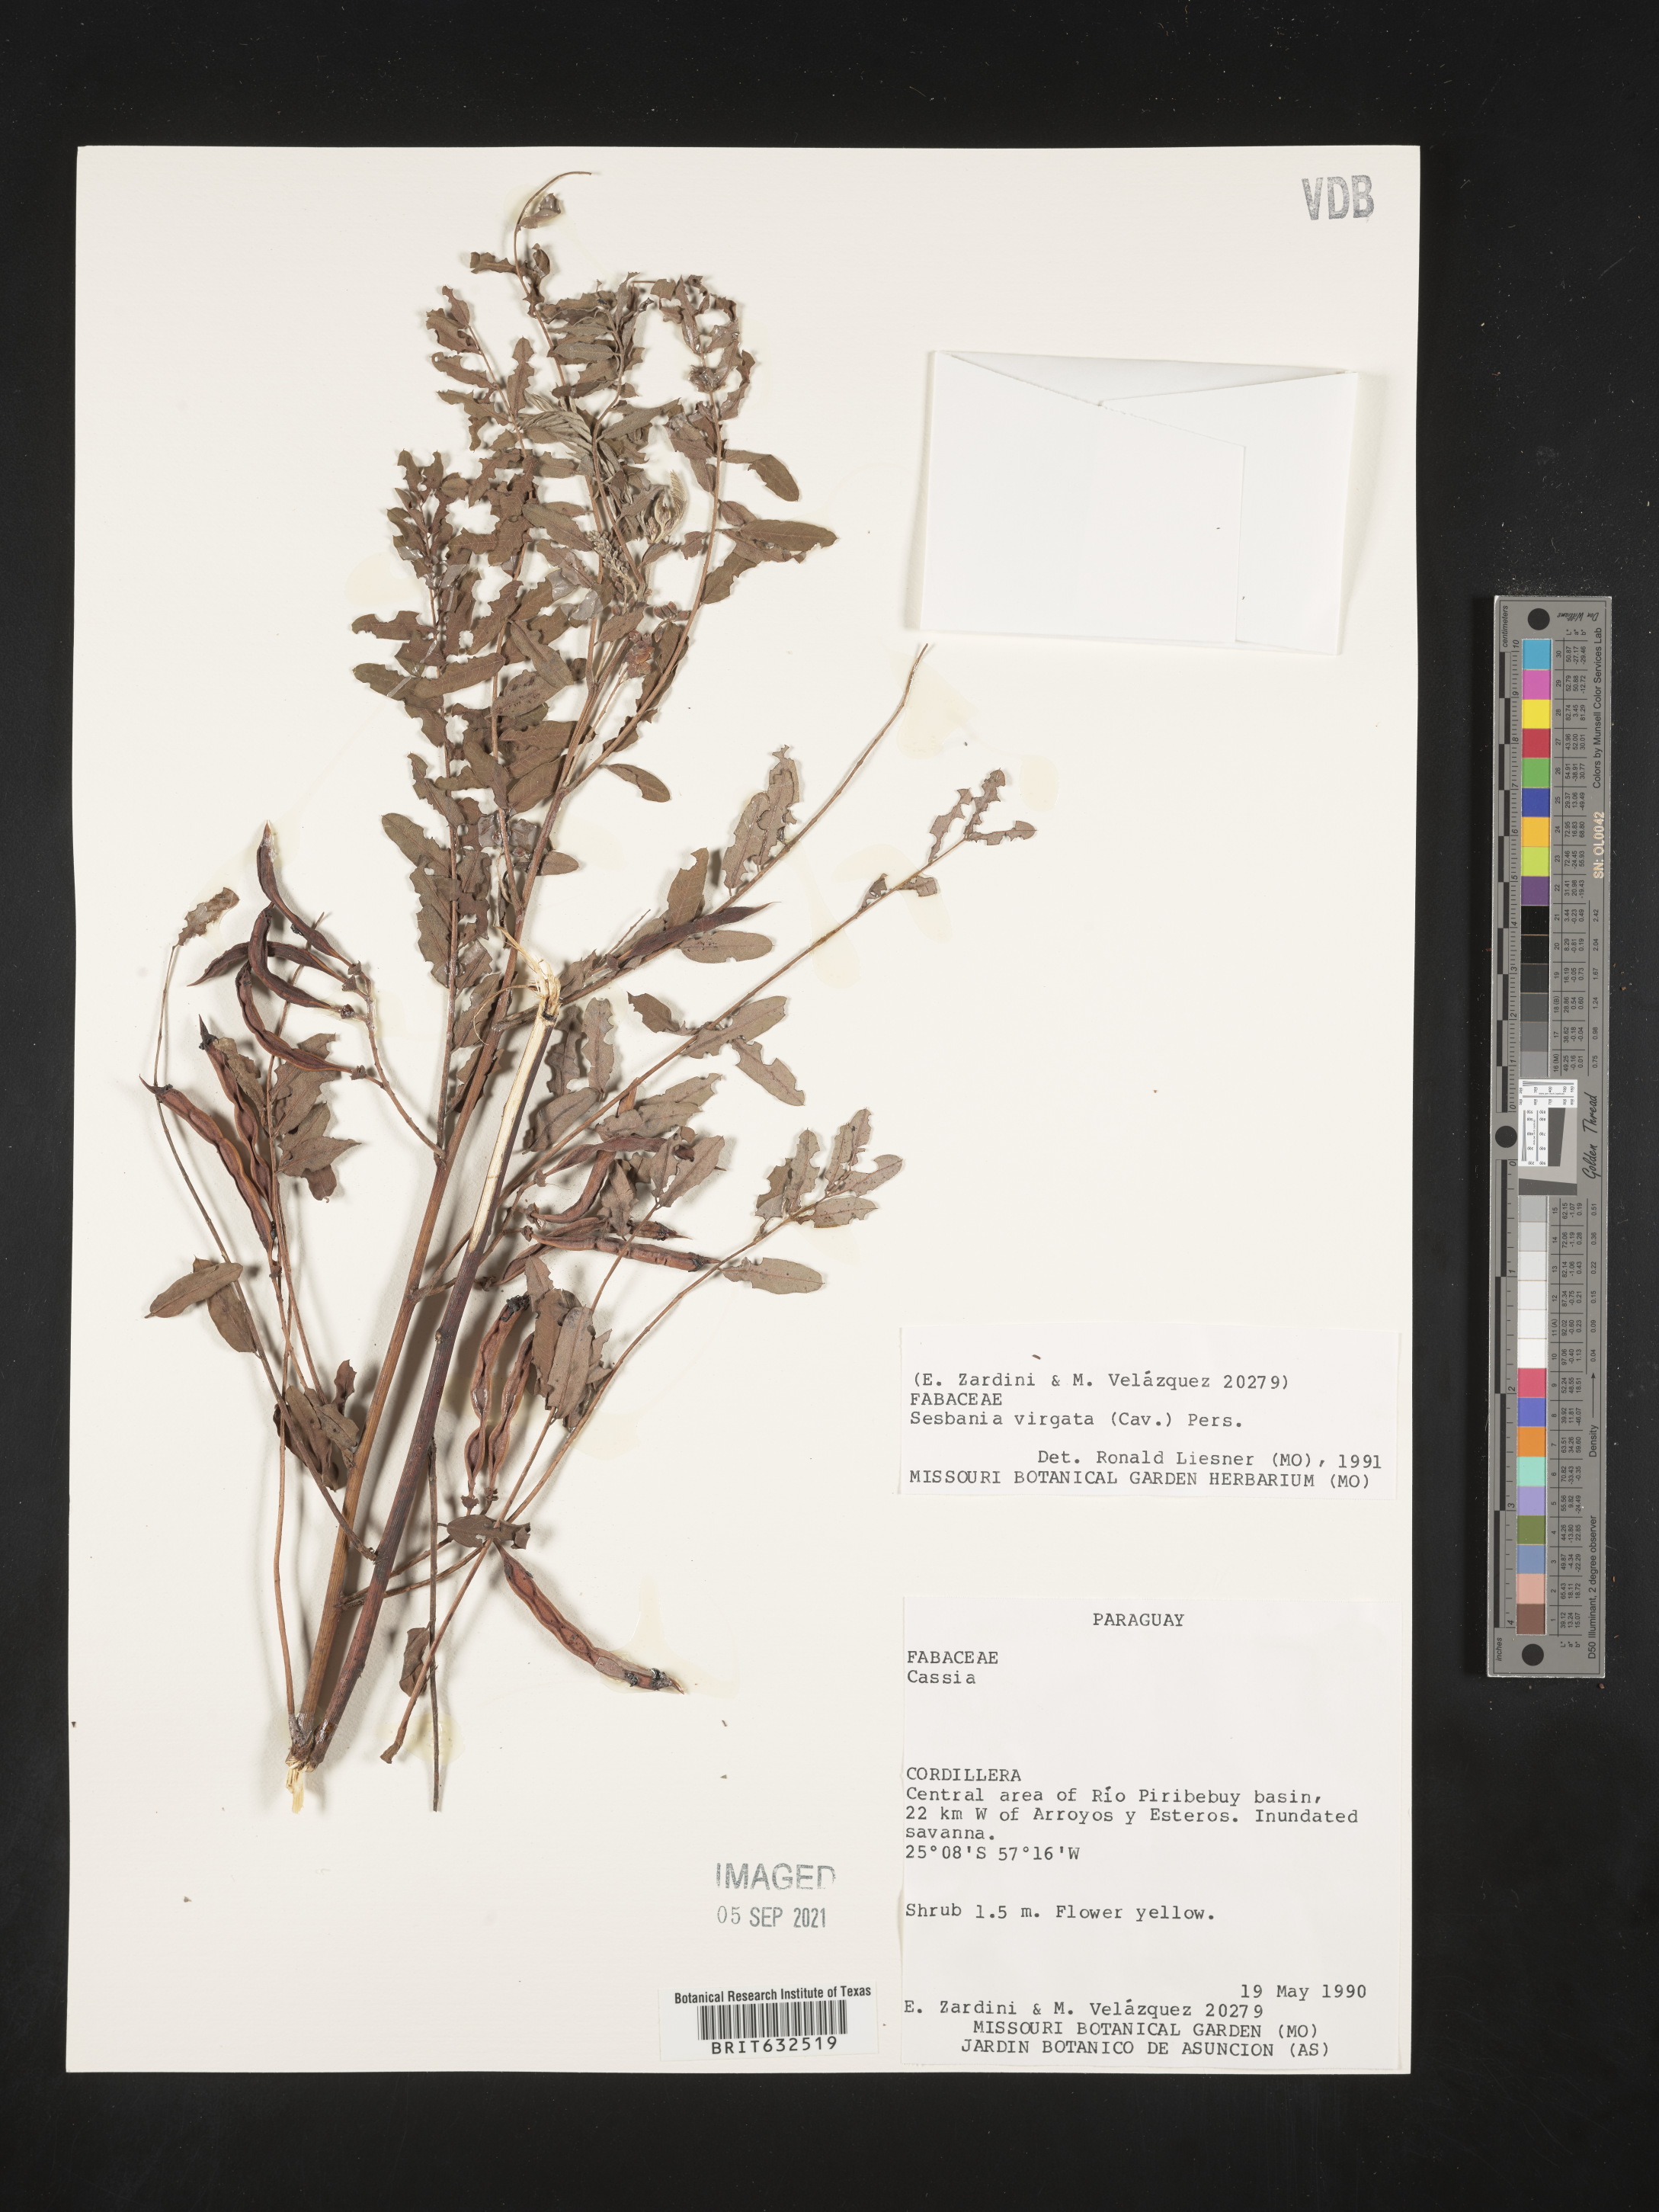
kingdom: Plantae
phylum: Tracheophyta
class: Magnoliopsida
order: Fabales
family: Fabaceae
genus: Sesbania
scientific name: Sesbania
